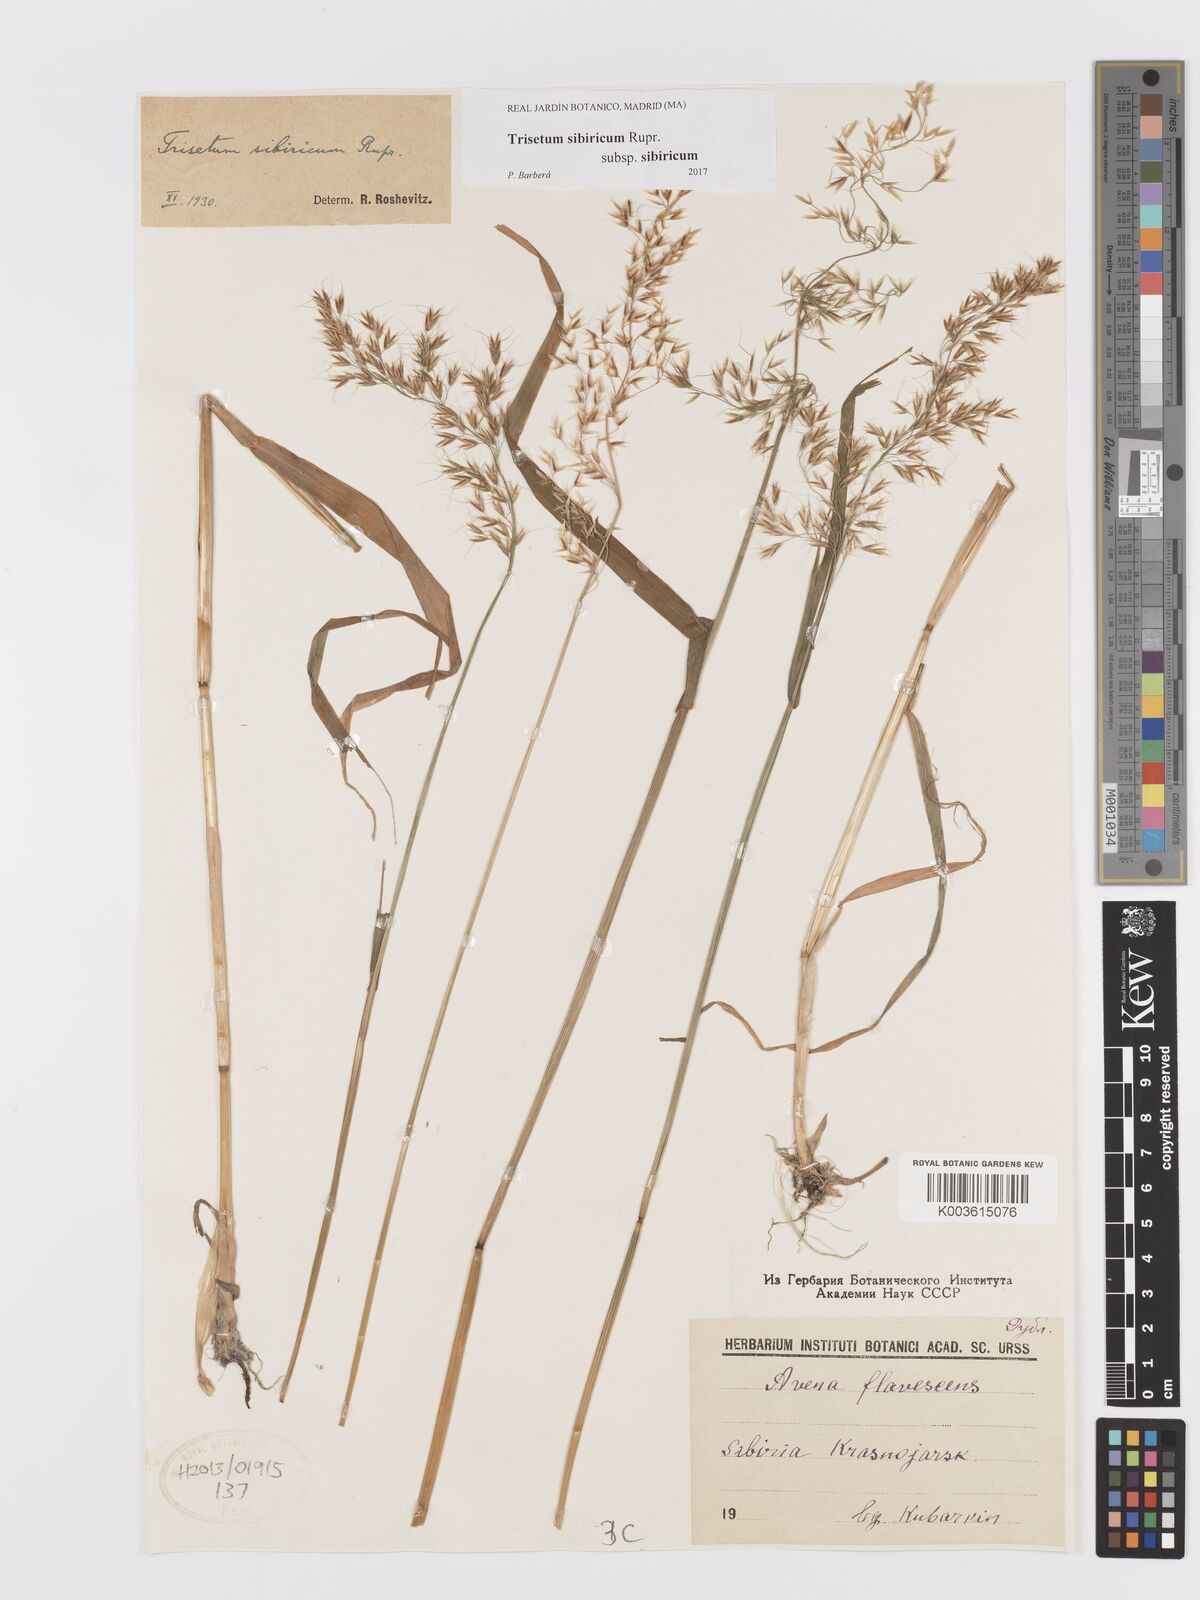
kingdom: Plantae
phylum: Tracheophyta
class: Liliopsida
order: Poales
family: Poaceae
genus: Sibirotrisetum
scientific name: Sibirotrisetum sibiricum
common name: Siberian false oat
